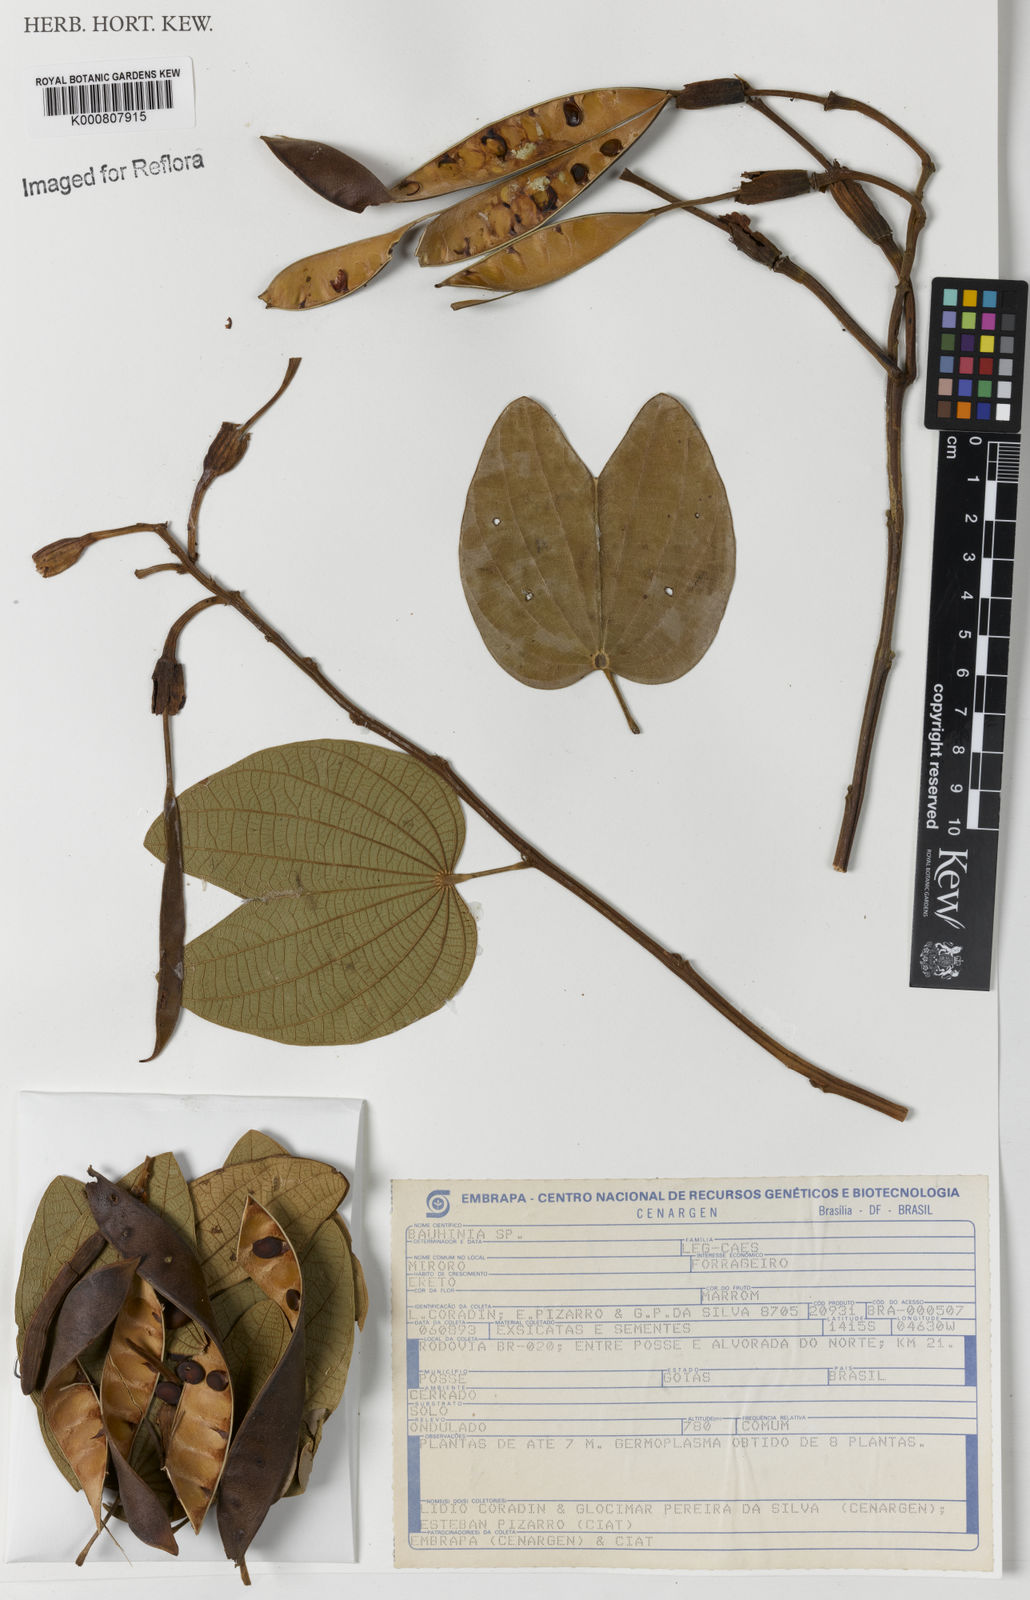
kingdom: Plantae
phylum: Tracheophyta
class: Magnoliopsida
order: Fabales
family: Fabaceae
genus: Bauhinia
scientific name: Bauhinia
